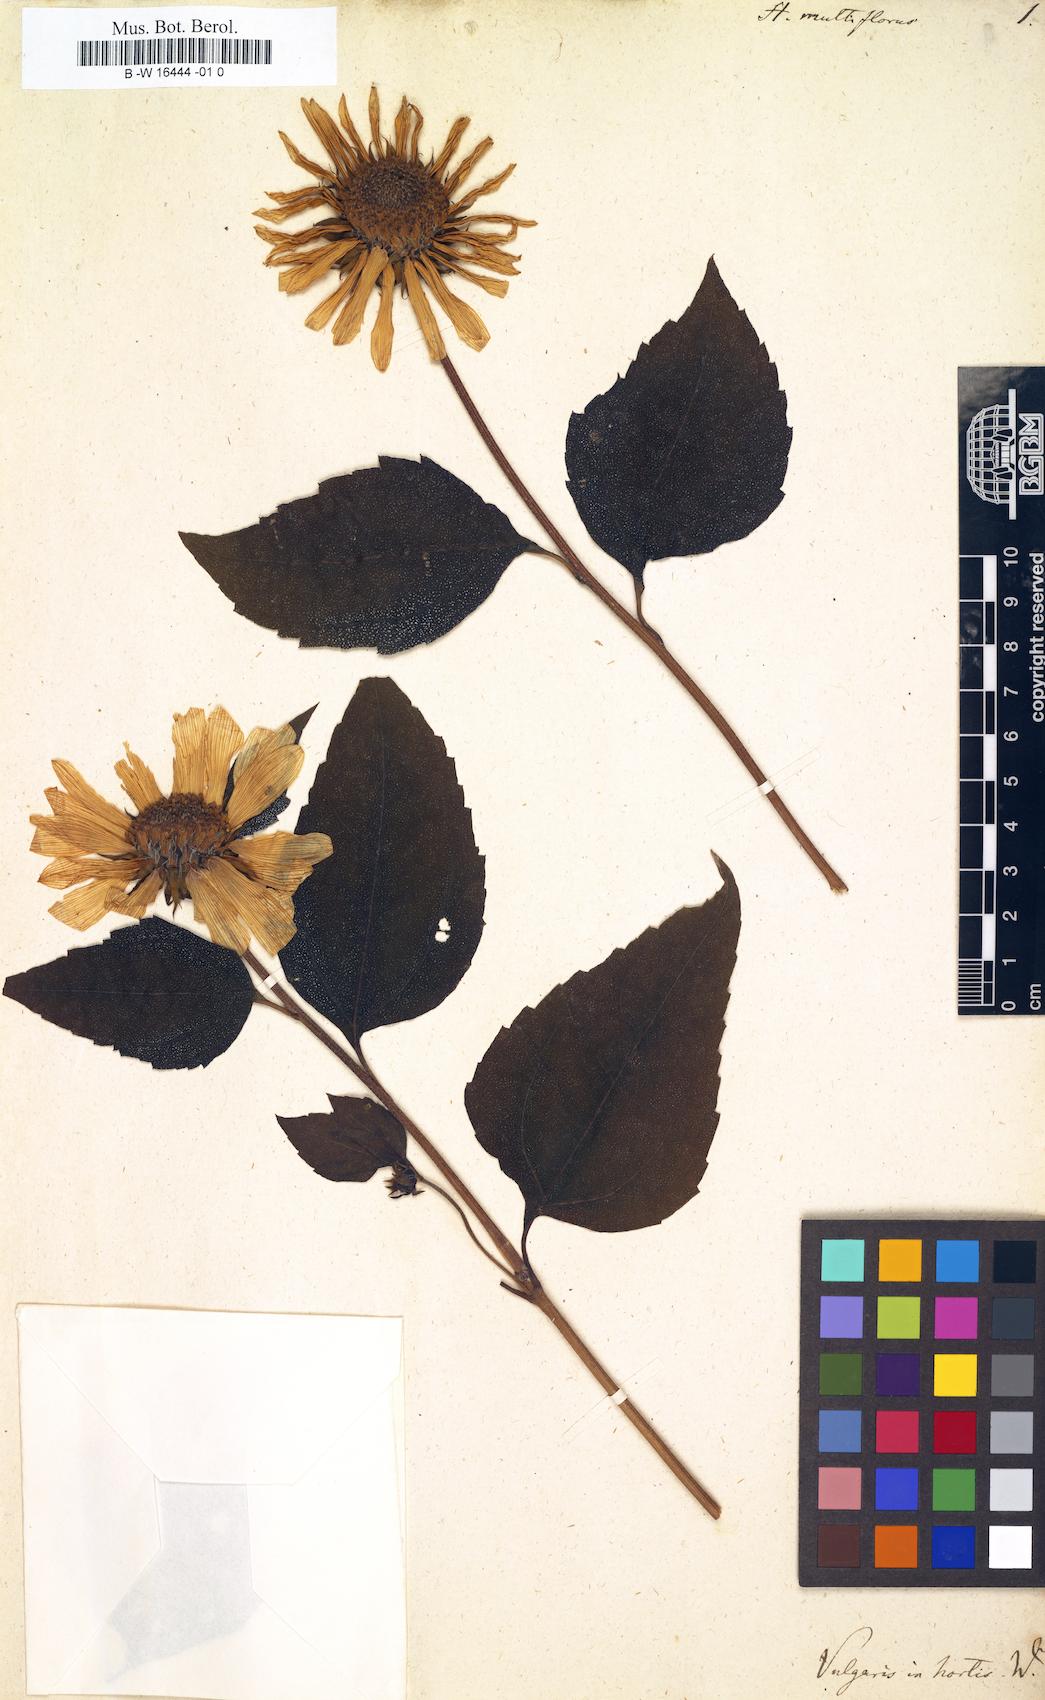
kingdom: Plantae
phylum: Tracheophyta
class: Magnoliopsida
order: Asterales
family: Asteraceae
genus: Helianthus
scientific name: Helianthus debilis
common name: Weak sunflower
